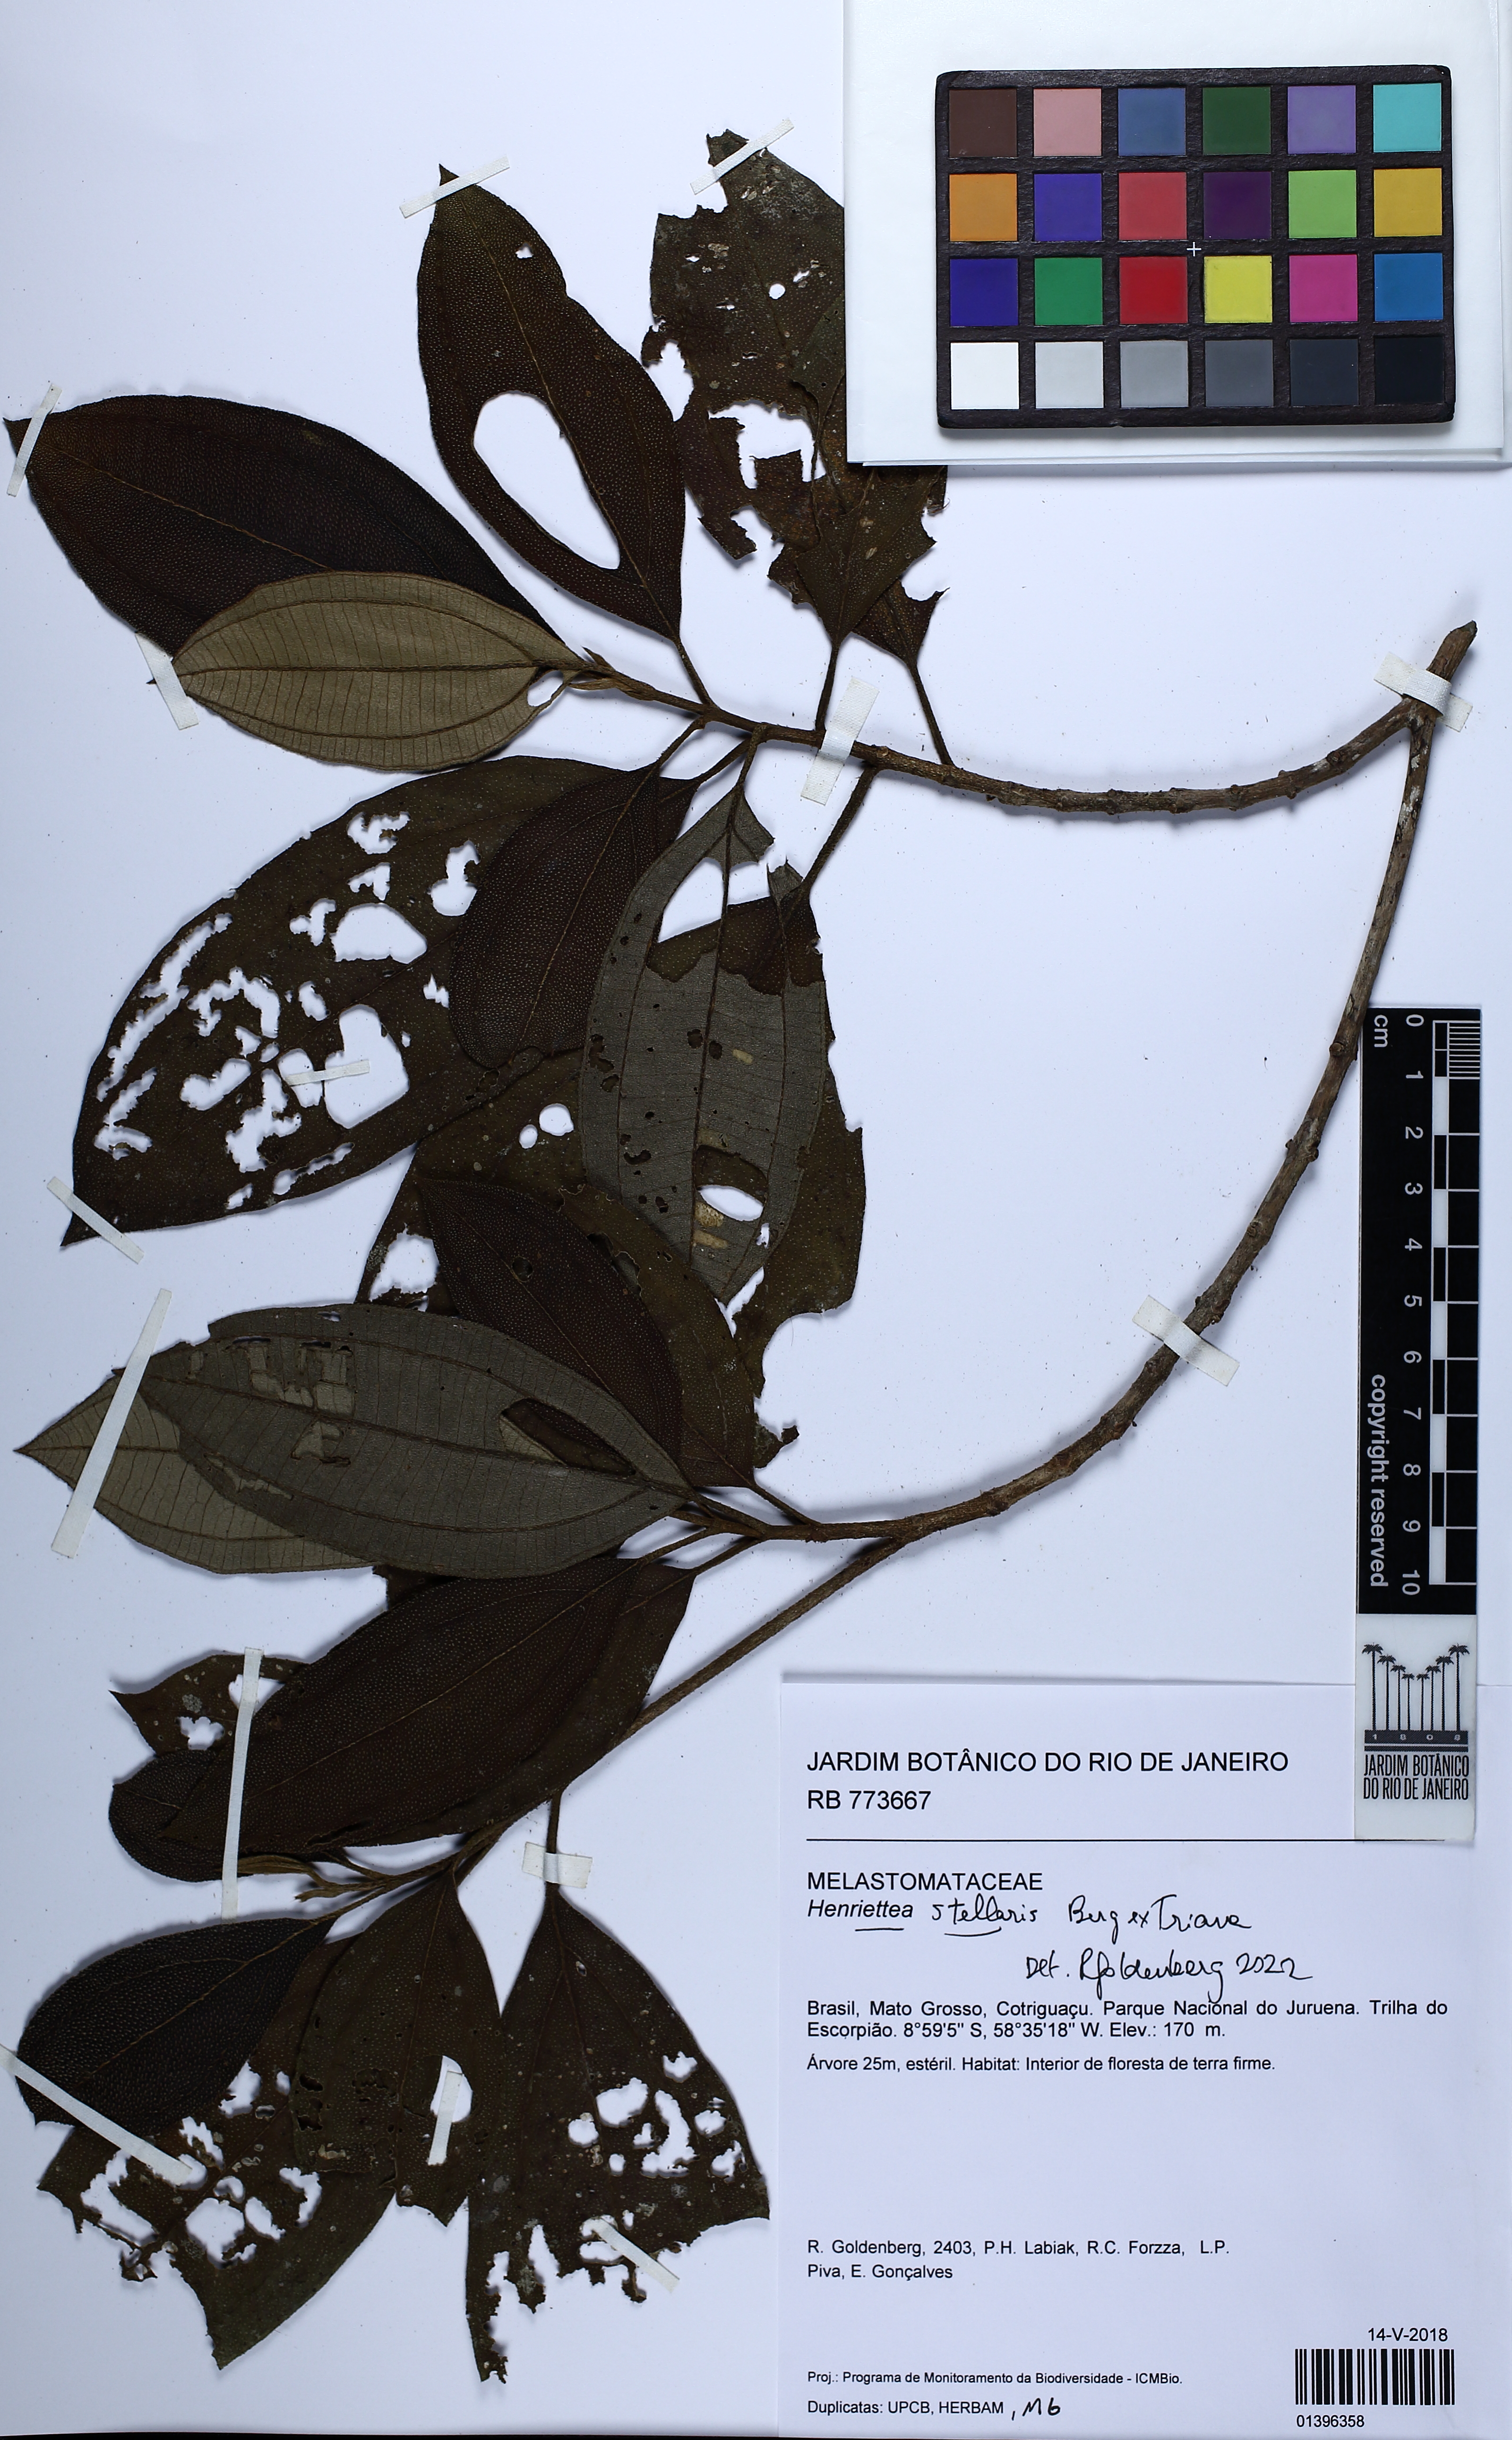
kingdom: Plantae
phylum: Tracheophyta
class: Magnoliopsida
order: Myrtales
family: Melastomataceae
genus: Henriettea
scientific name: Henriettea stellaris
